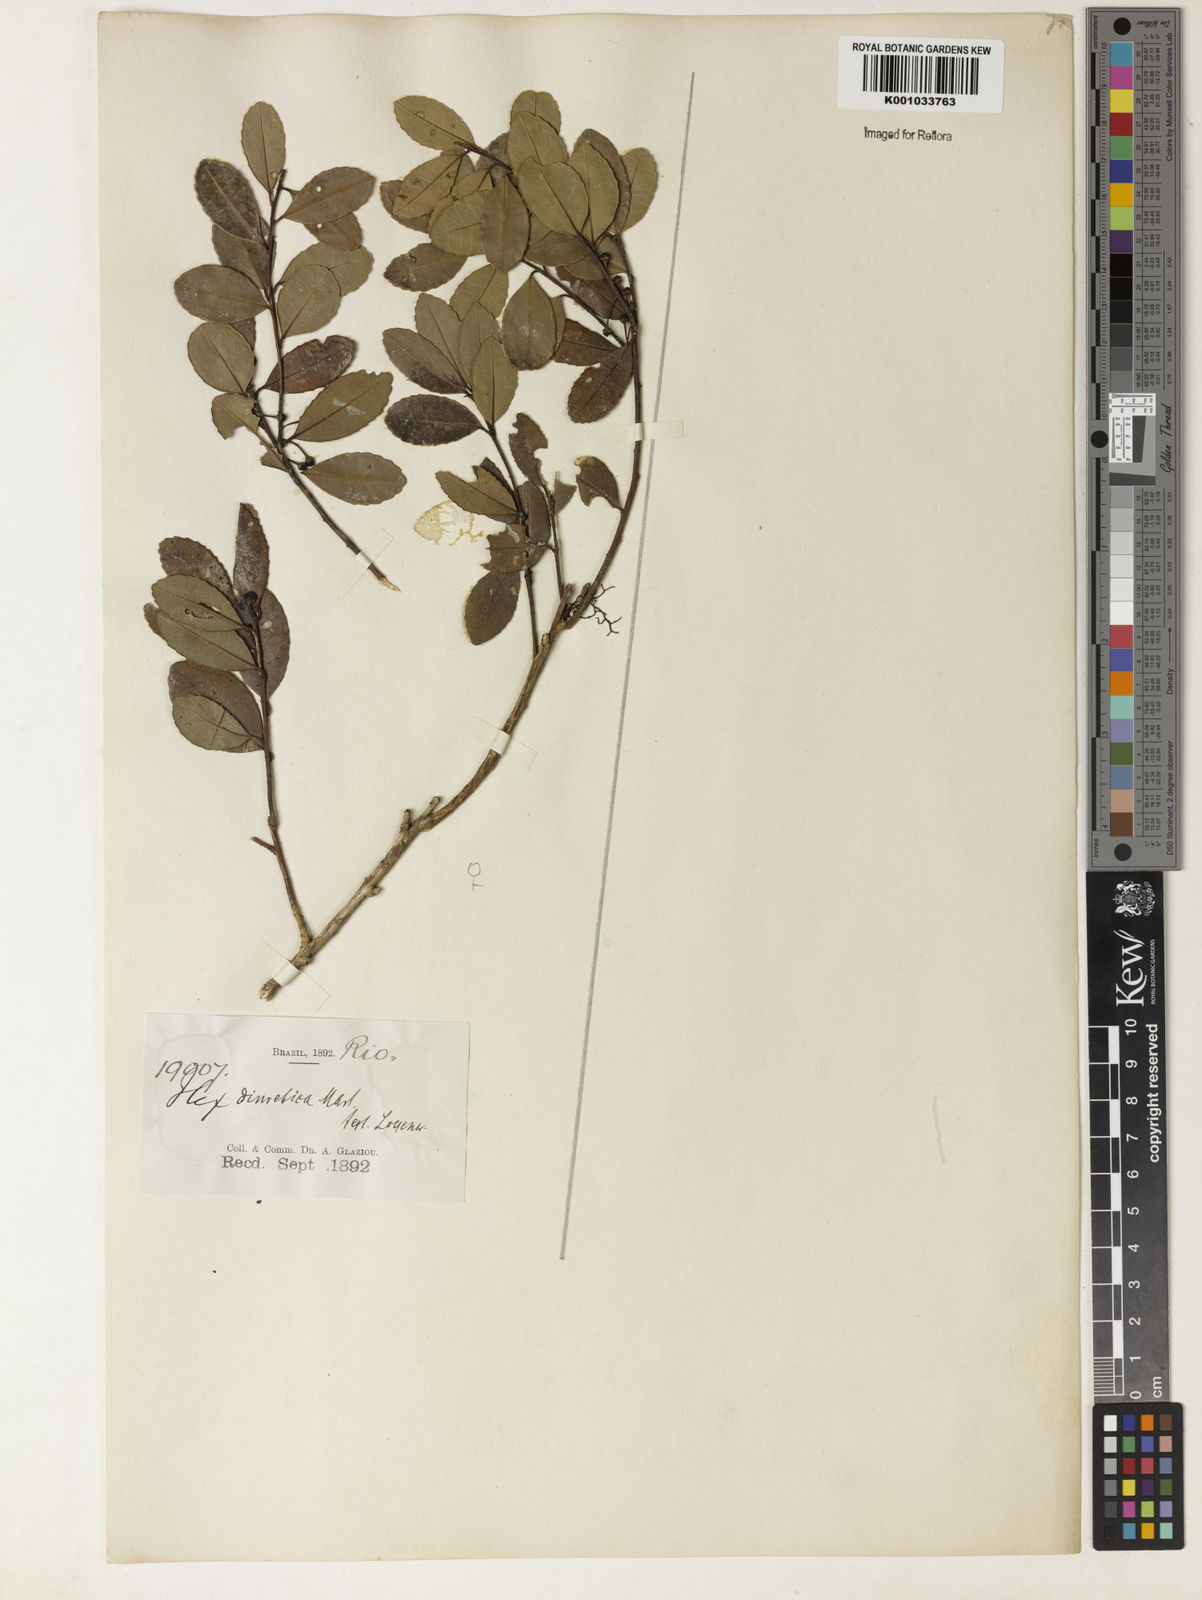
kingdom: Plantae
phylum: Tracheophyta
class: Magnoliopsida
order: Aquifoliales
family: Aquifoliaceae
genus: Ilex
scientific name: Ilex diuretica
